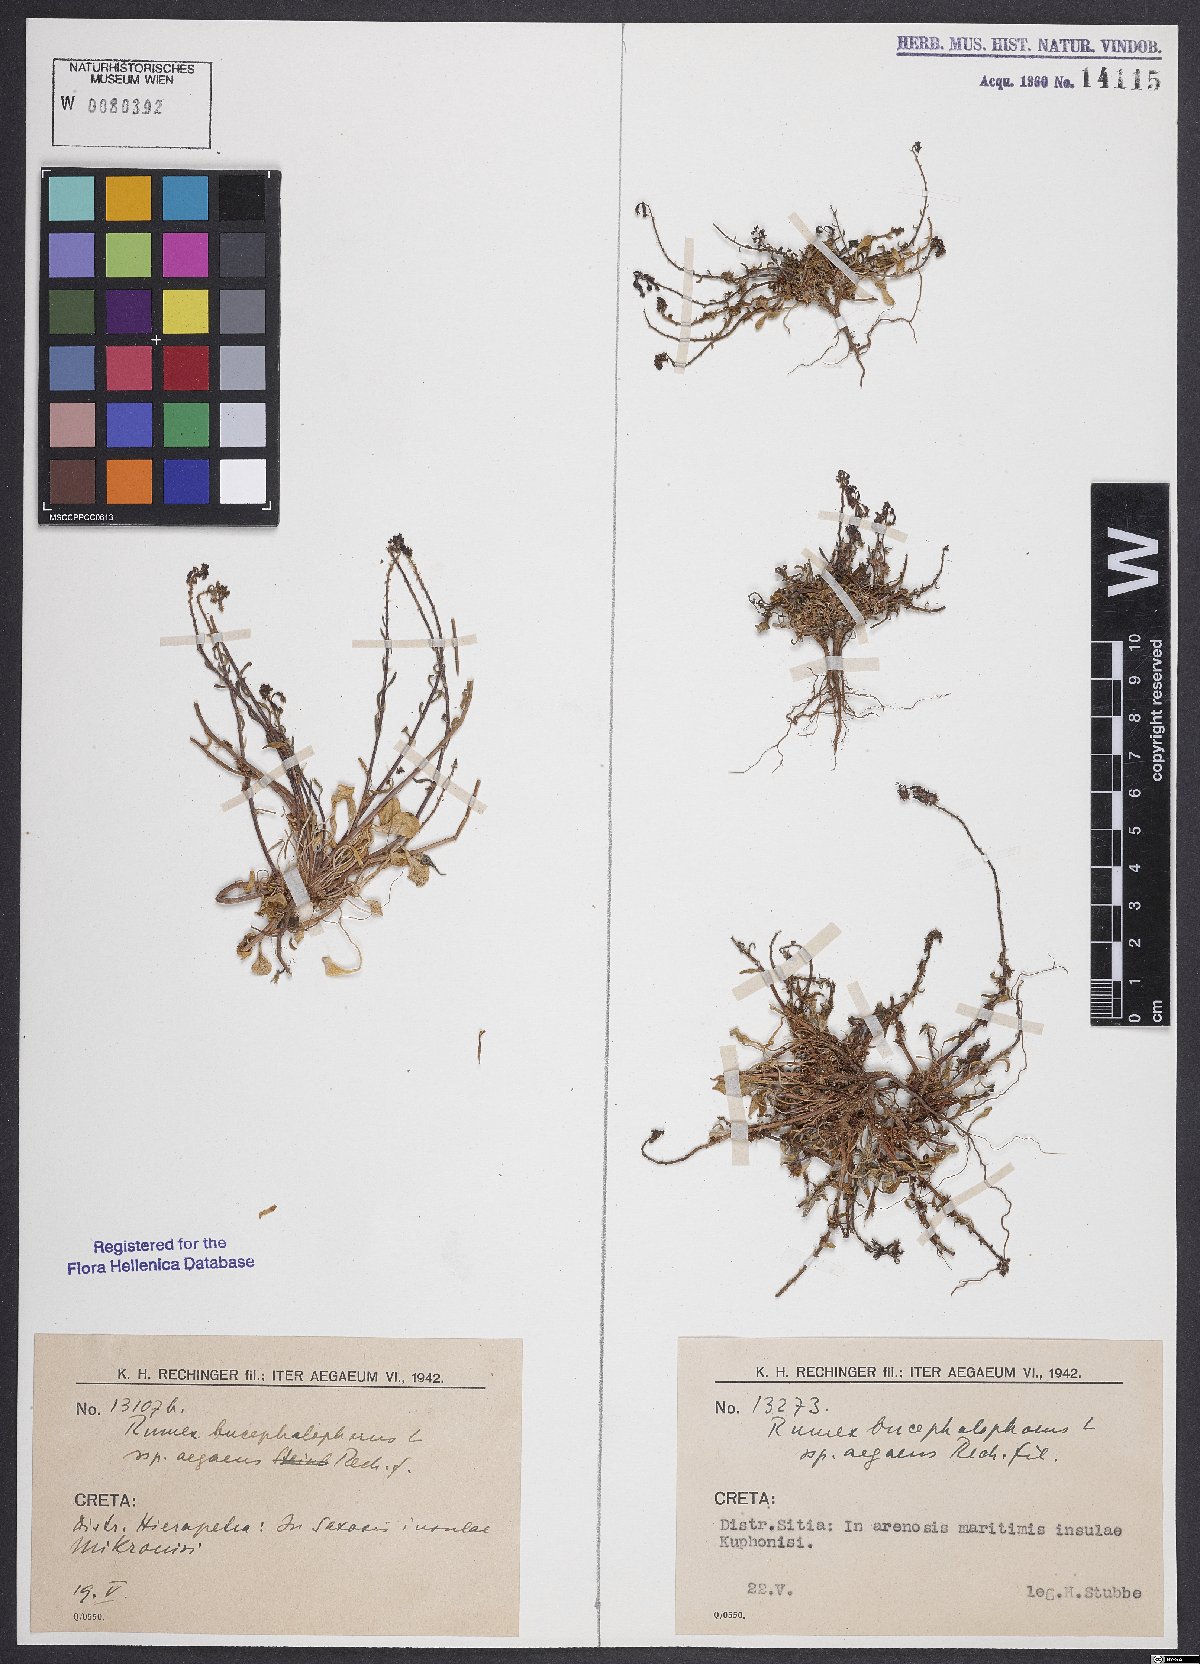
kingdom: Plantae
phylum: Tracheophyta
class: Magnoliopsida
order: Caryophyllales
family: Polygonaceae
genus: Rumex
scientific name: Rumex bucephalophorus
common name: Red dock
